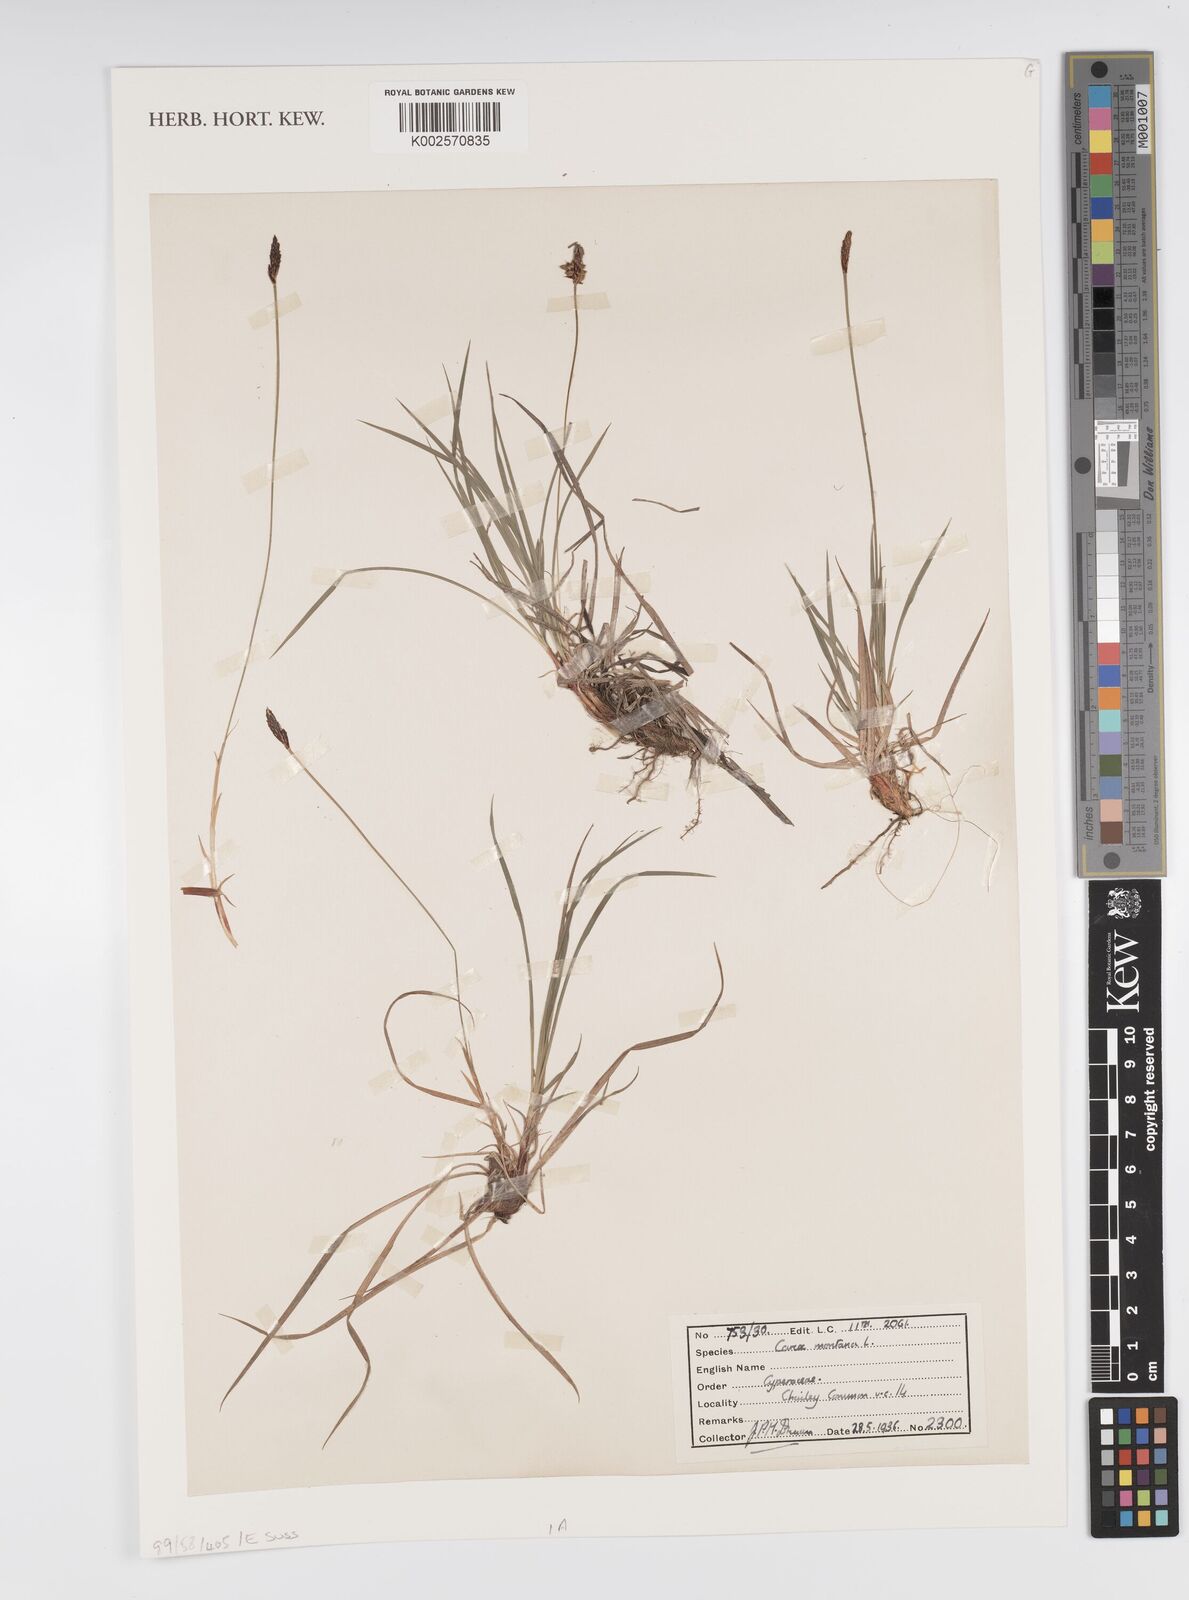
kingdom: Plantae
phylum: Tracheophyta
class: Liliopsida
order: Poales
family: Cyperaceae
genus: Carex
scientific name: Carex montana
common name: Soft-leaved sedge
